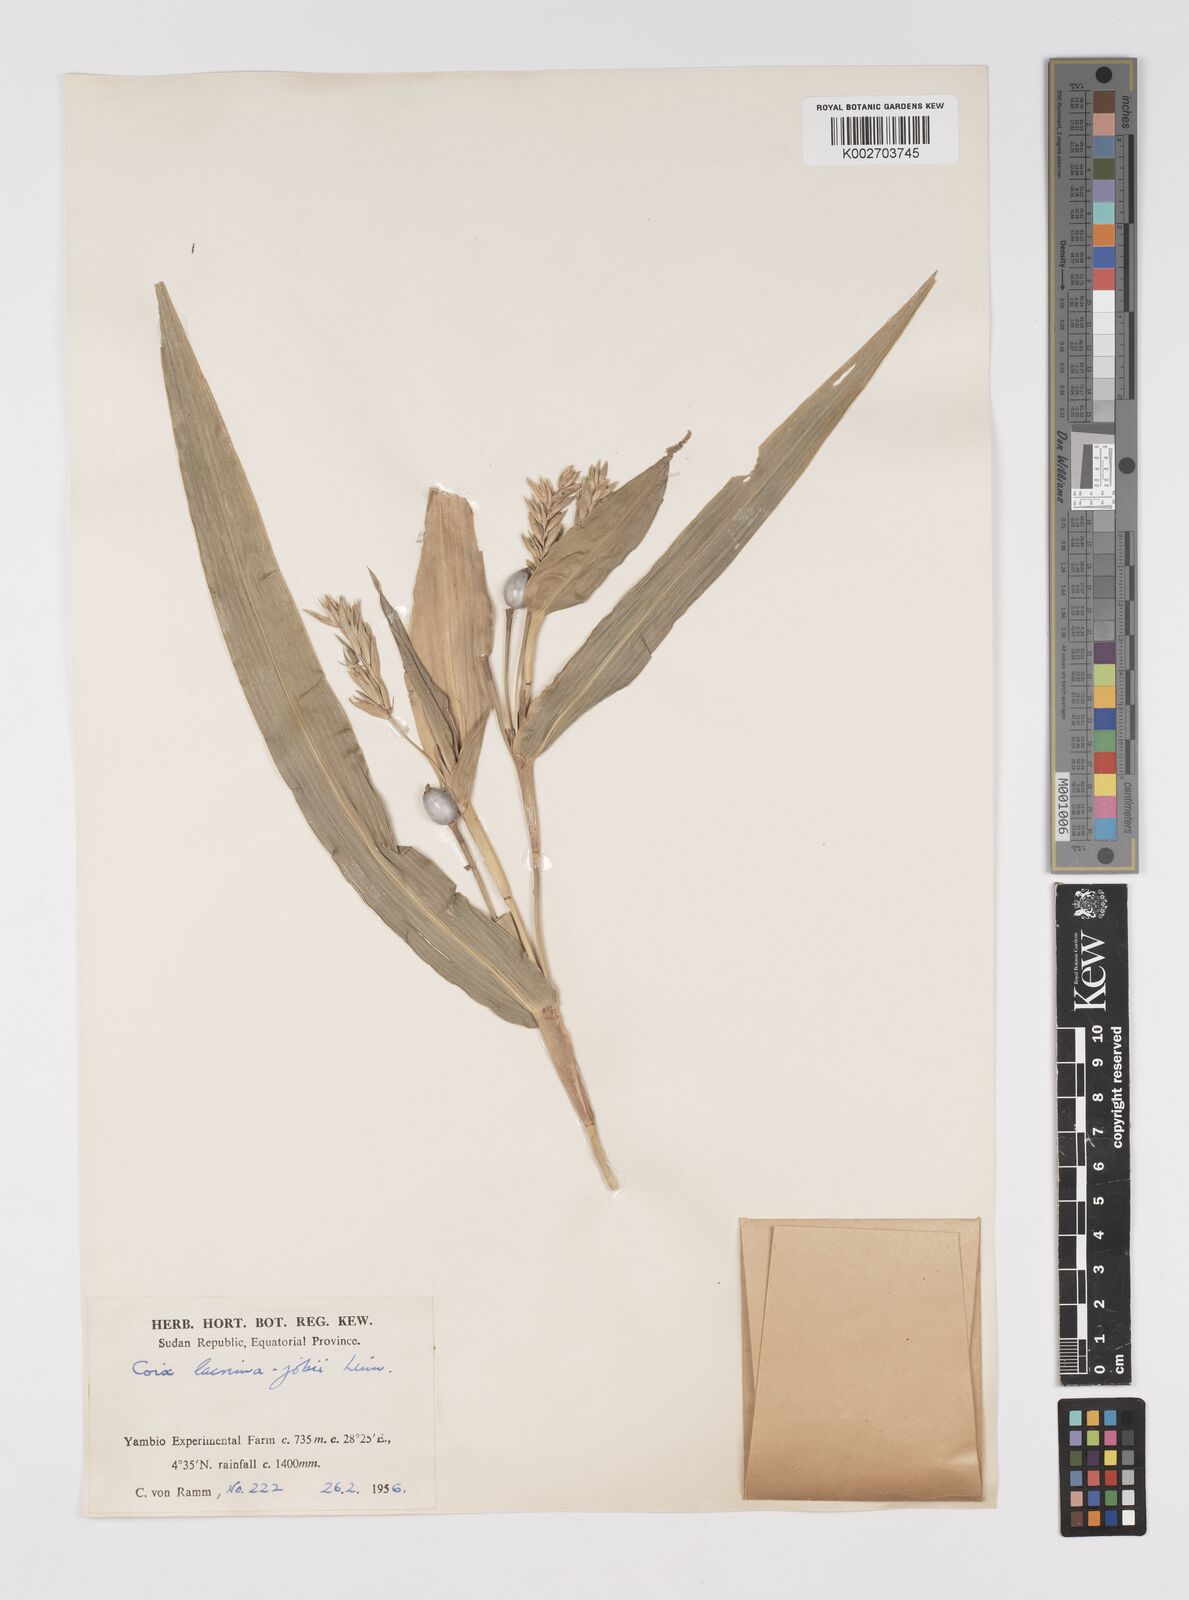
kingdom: Plantae
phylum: Tracheophyta
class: Liliopsida
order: Poales
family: Poaceae
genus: Coix
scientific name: Coix lacryma-jobi
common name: Job's tears
